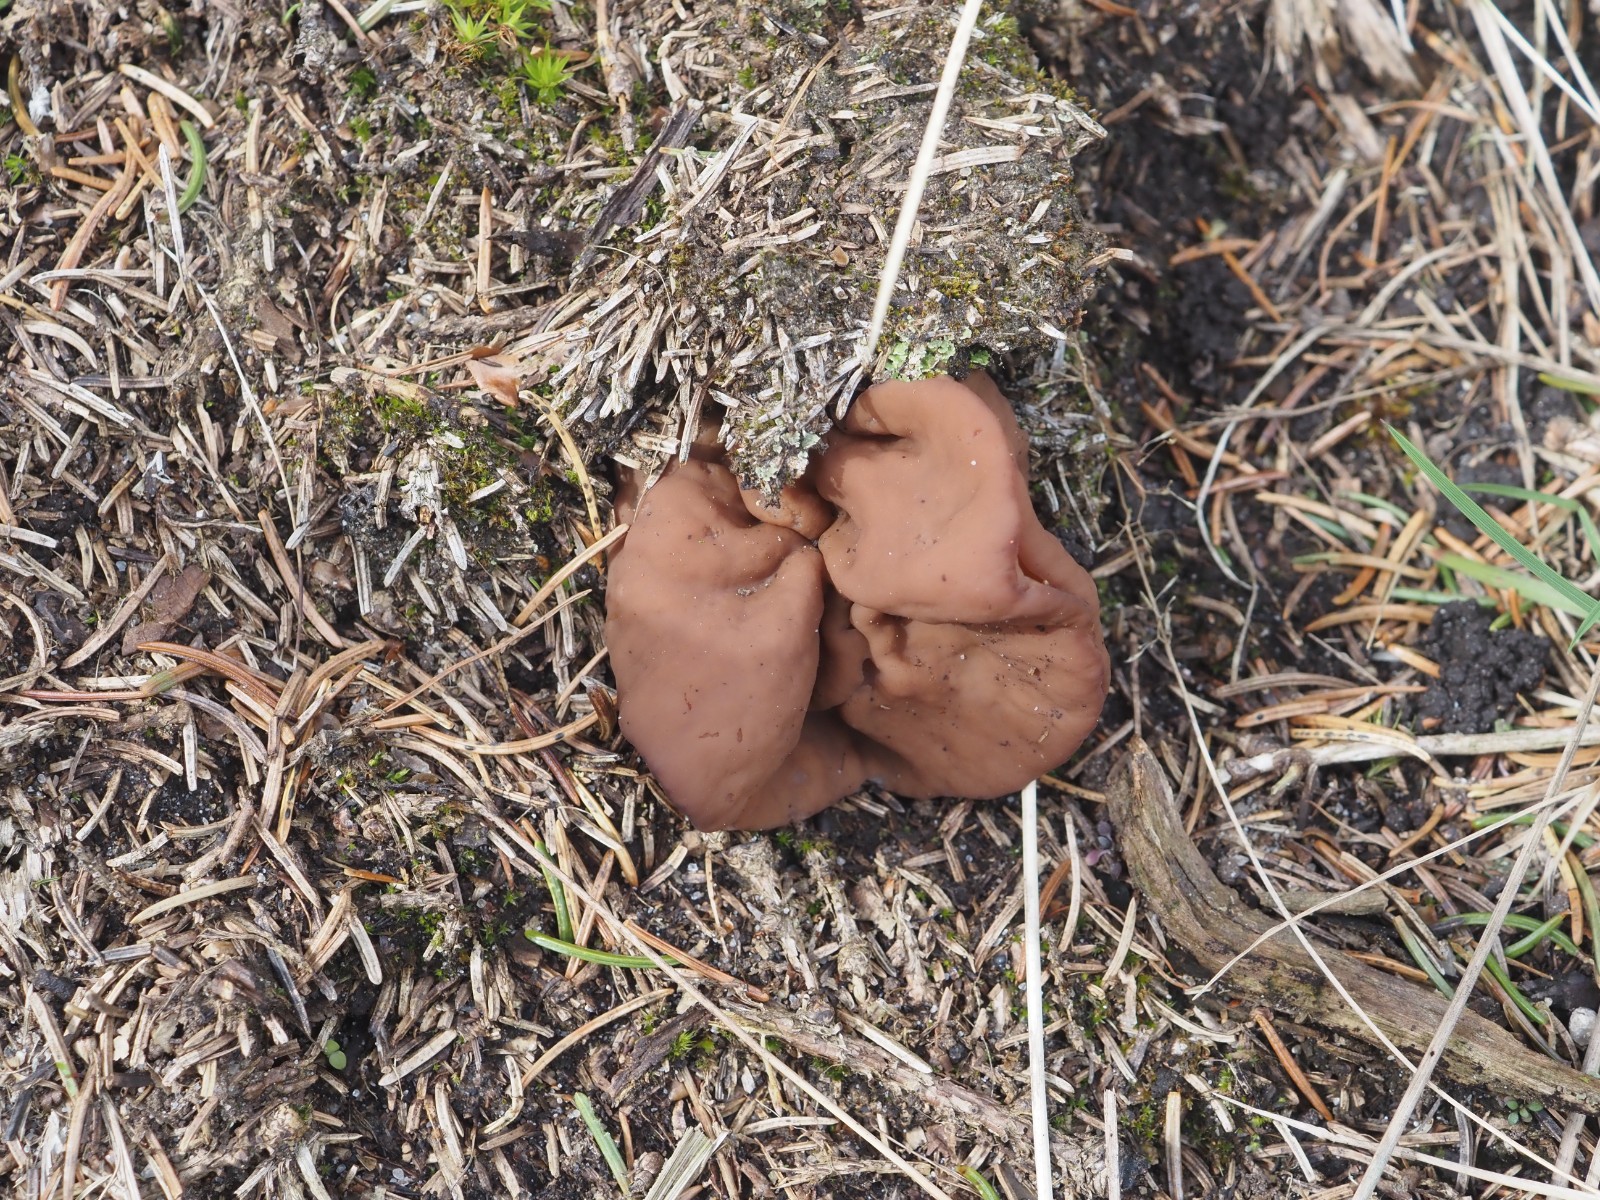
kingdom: Fungi
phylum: Ascomycota
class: Pezizomycetes
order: Pezizales
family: Discinaceae
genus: Discina
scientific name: Discina ancilis
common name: udbredt stenmorkel
